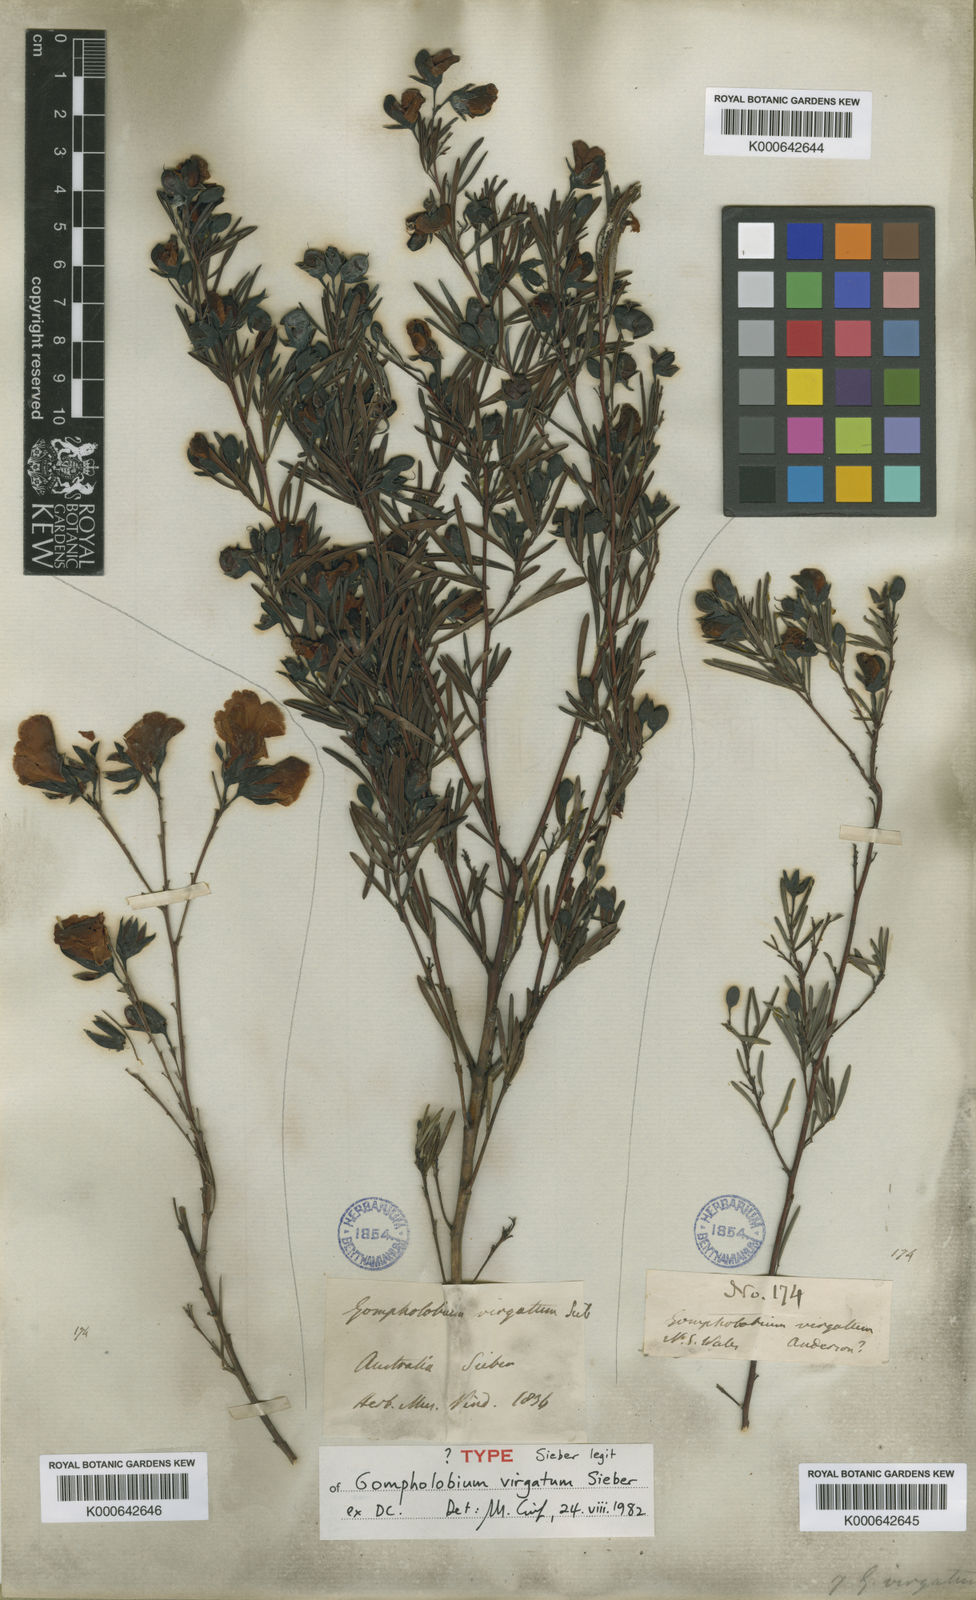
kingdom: Plantae
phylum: Tracheophyta
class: Magnoliopsida
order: Fabales
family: Fabaceae
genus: Gompholobium
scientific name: Gompholobium virgatum
